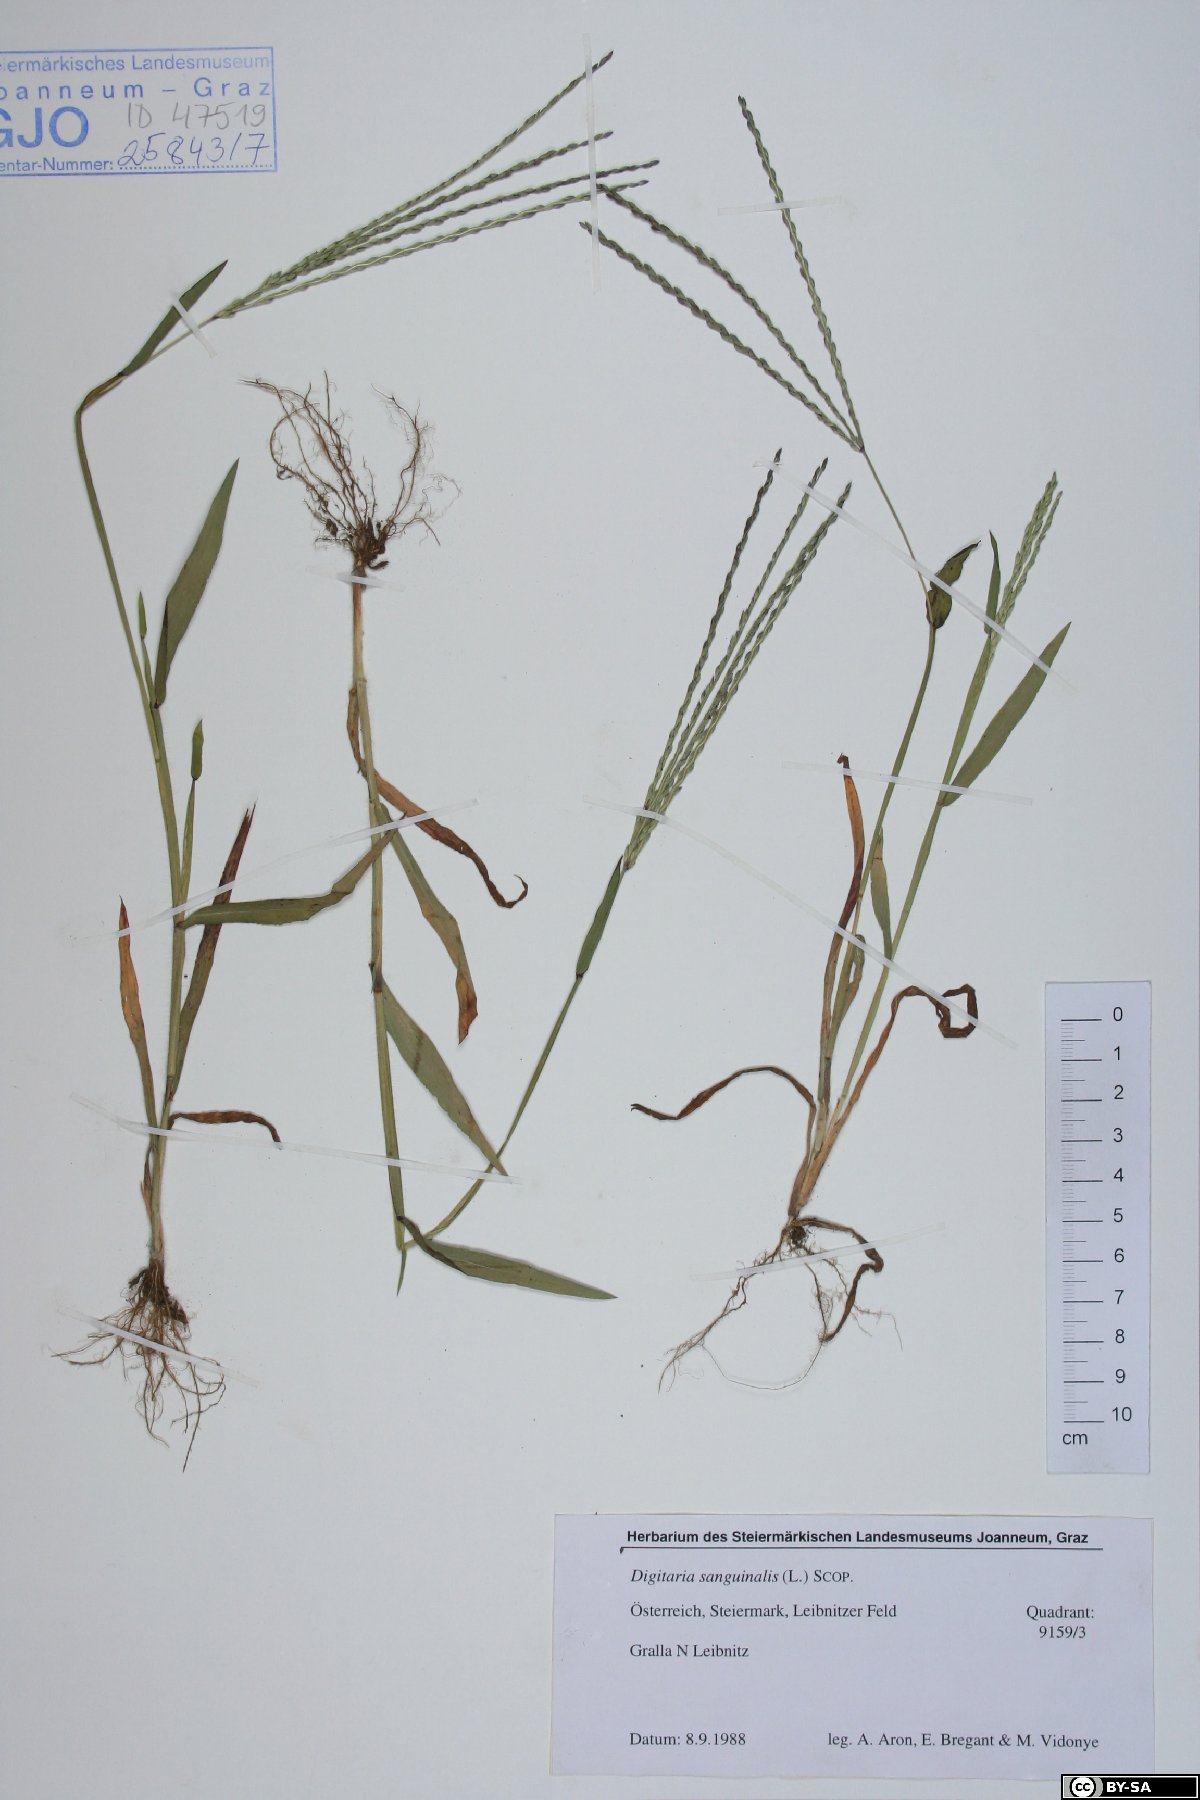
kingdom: Plantae
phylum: Tracheophyta
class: Liliopsida
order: Poales
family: Poaceae
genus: Digitaria
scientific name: Digitaria sanguinalis
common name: Hairy crabgrass
